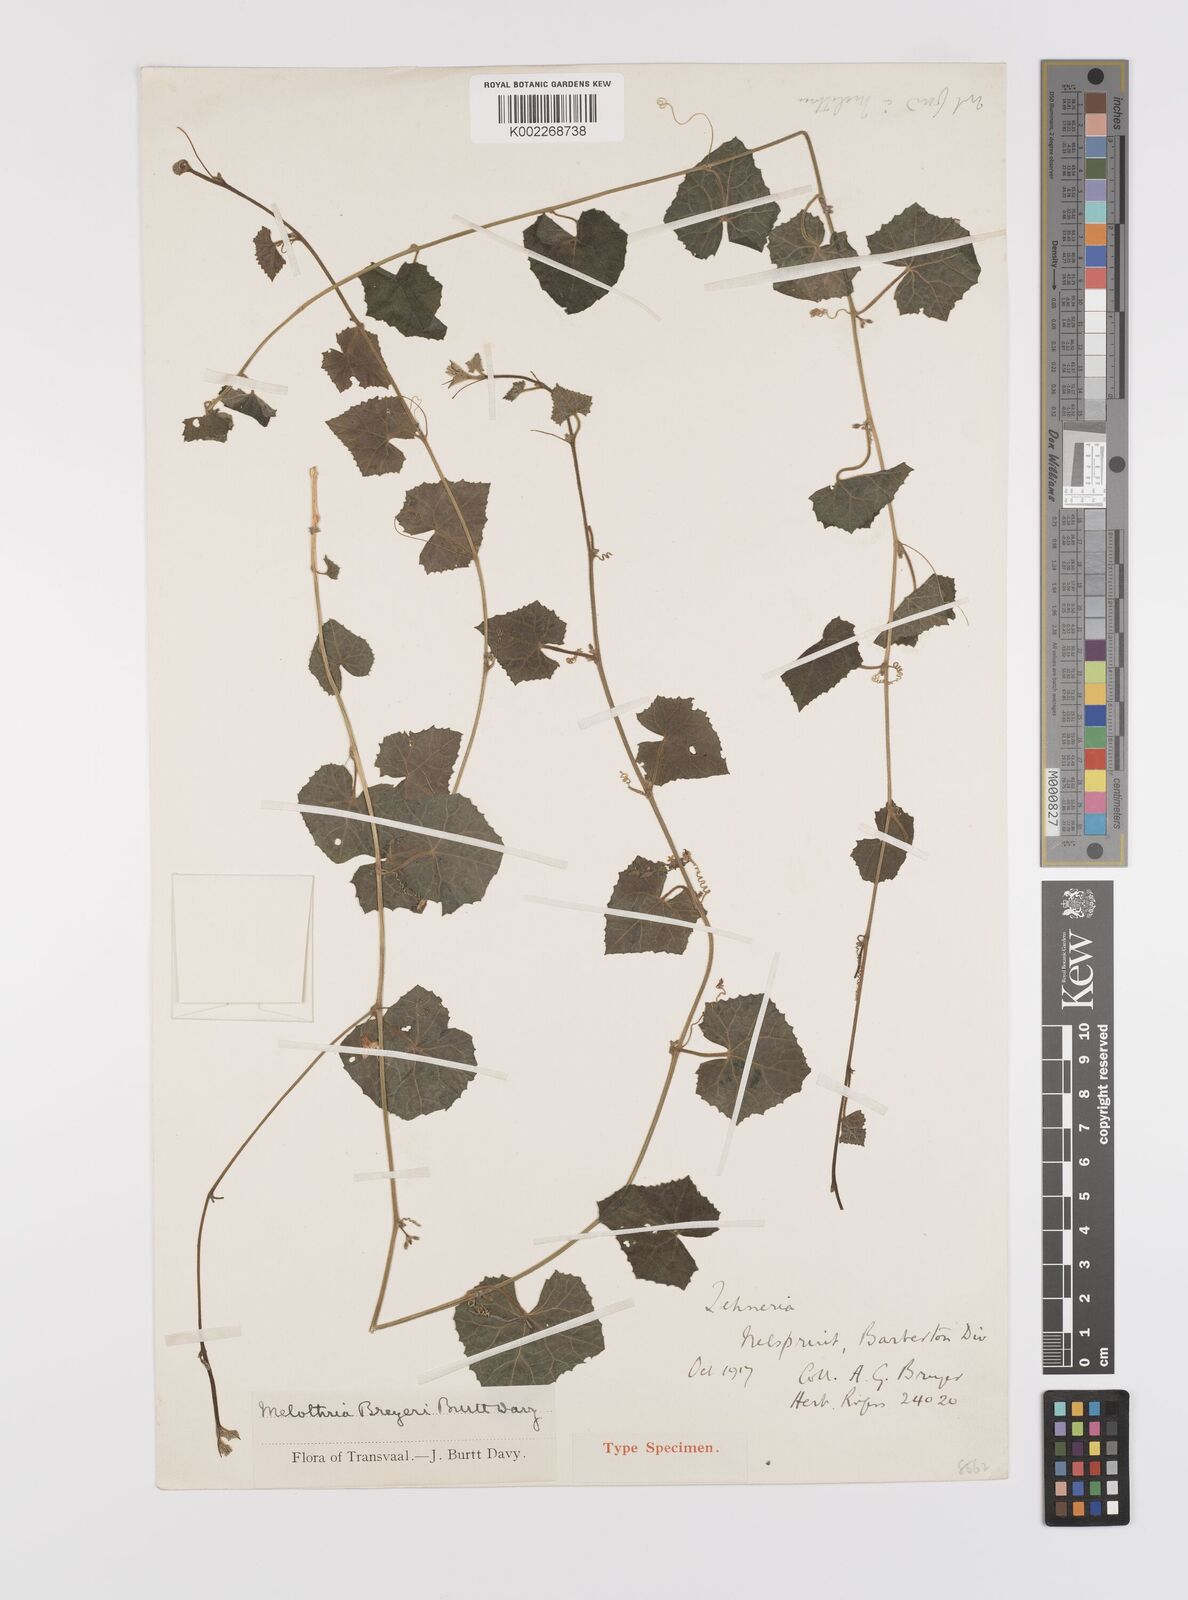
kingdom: Plantae
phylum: Tracheophyta
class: Magnoliopsida
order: Cucurbitales
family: Cucurbitaceae
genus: Cucumis
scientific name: Cucumis cinereus
